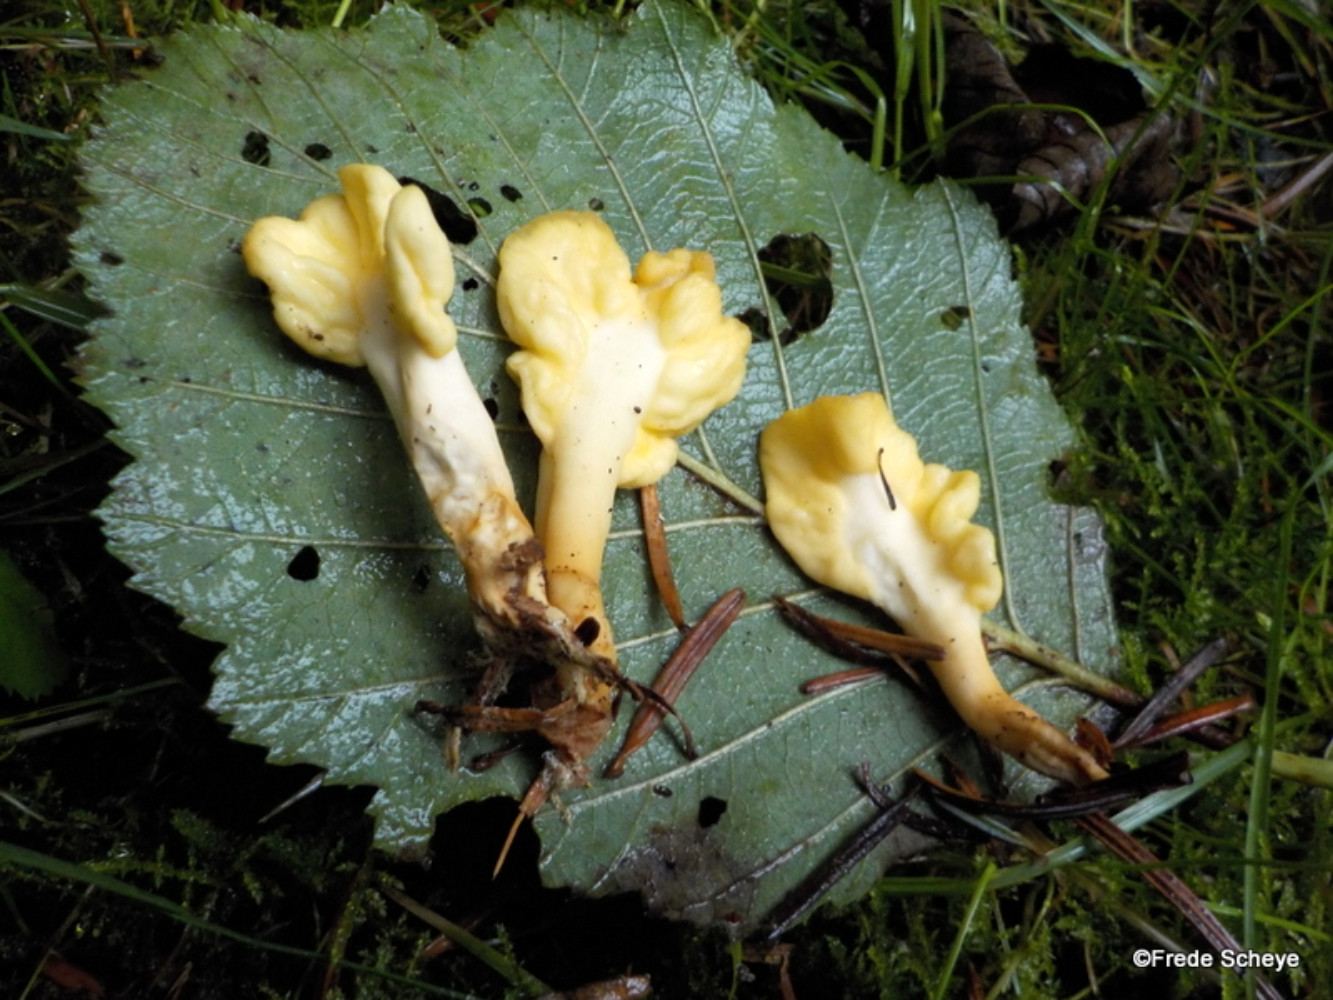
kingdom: Fungi
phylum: Ascomycota
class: Leotiomycetes
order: Rhytismatales
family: Cudoniaceae
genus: Spathularia
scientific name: Spathularia flavida
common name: gul spatelsvamp
